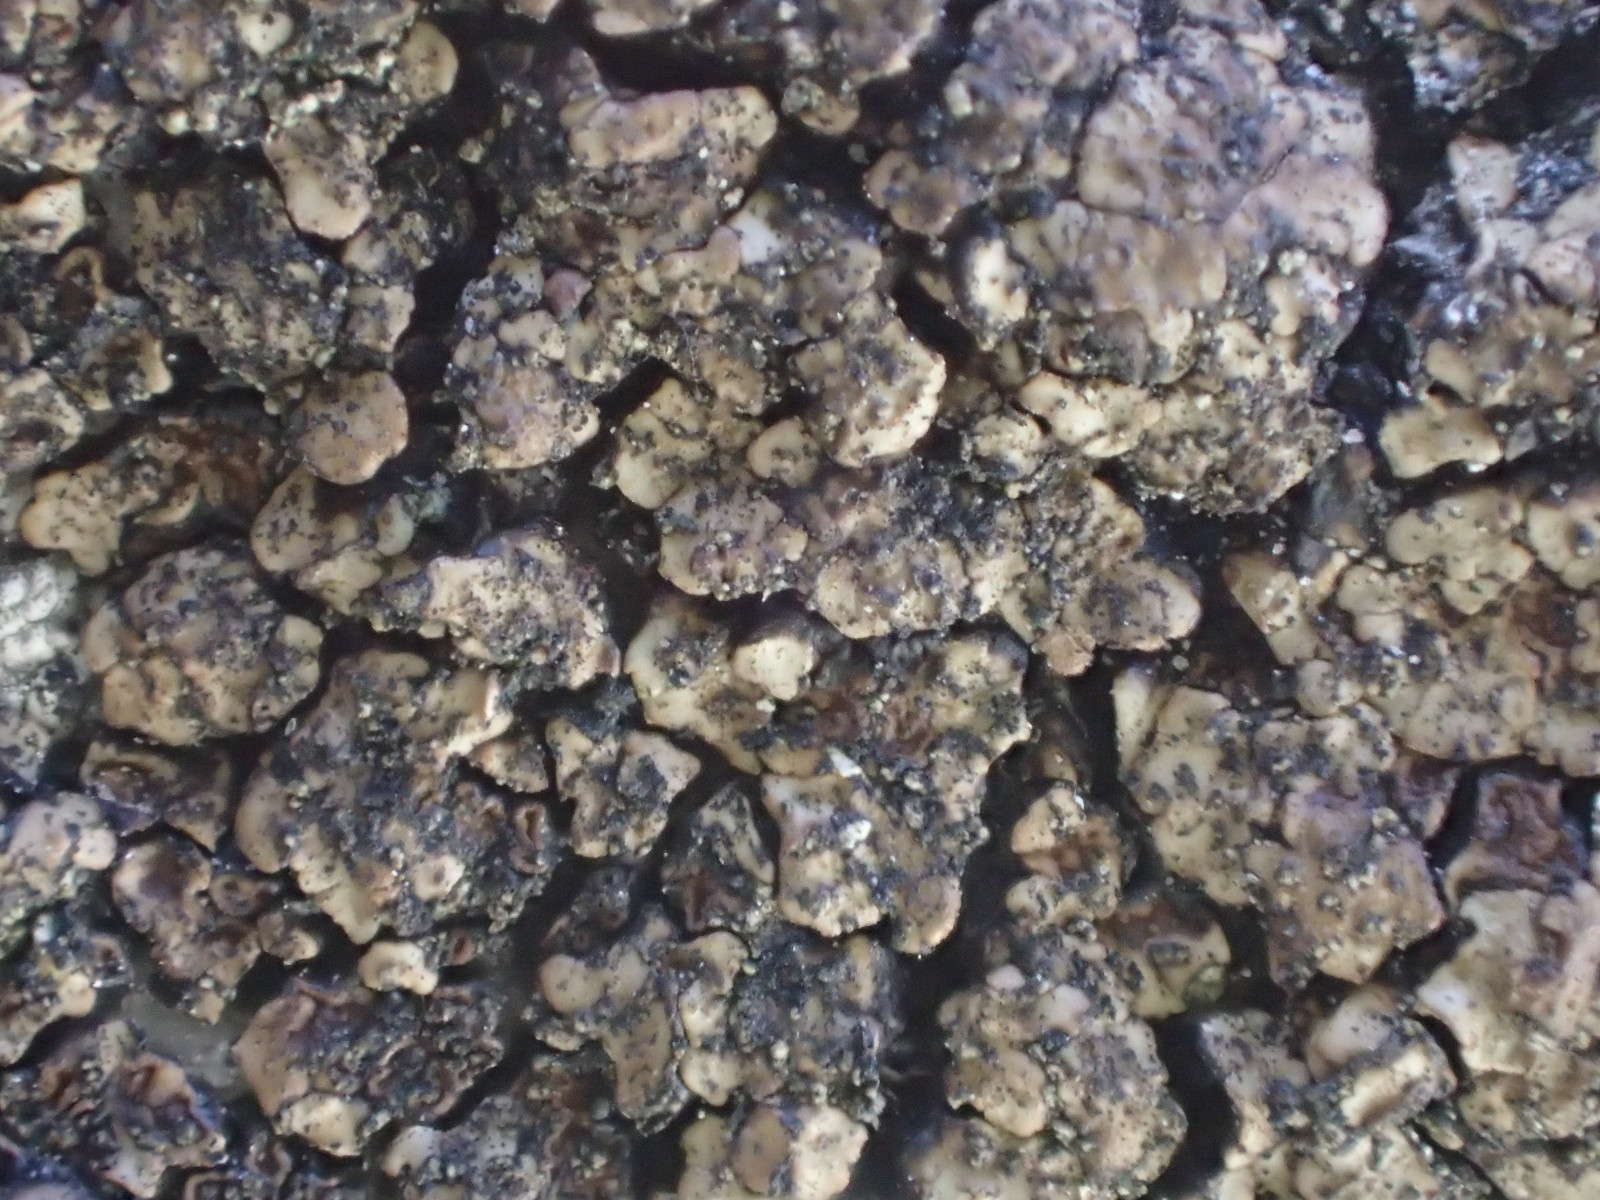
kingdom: Fungi
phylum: Ascomycota
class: Lecanoromycetes
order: Acarosporales
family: Acarosporaceae
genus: Acarospora
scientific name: Acarospora fuscata
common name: brun småsporelav
